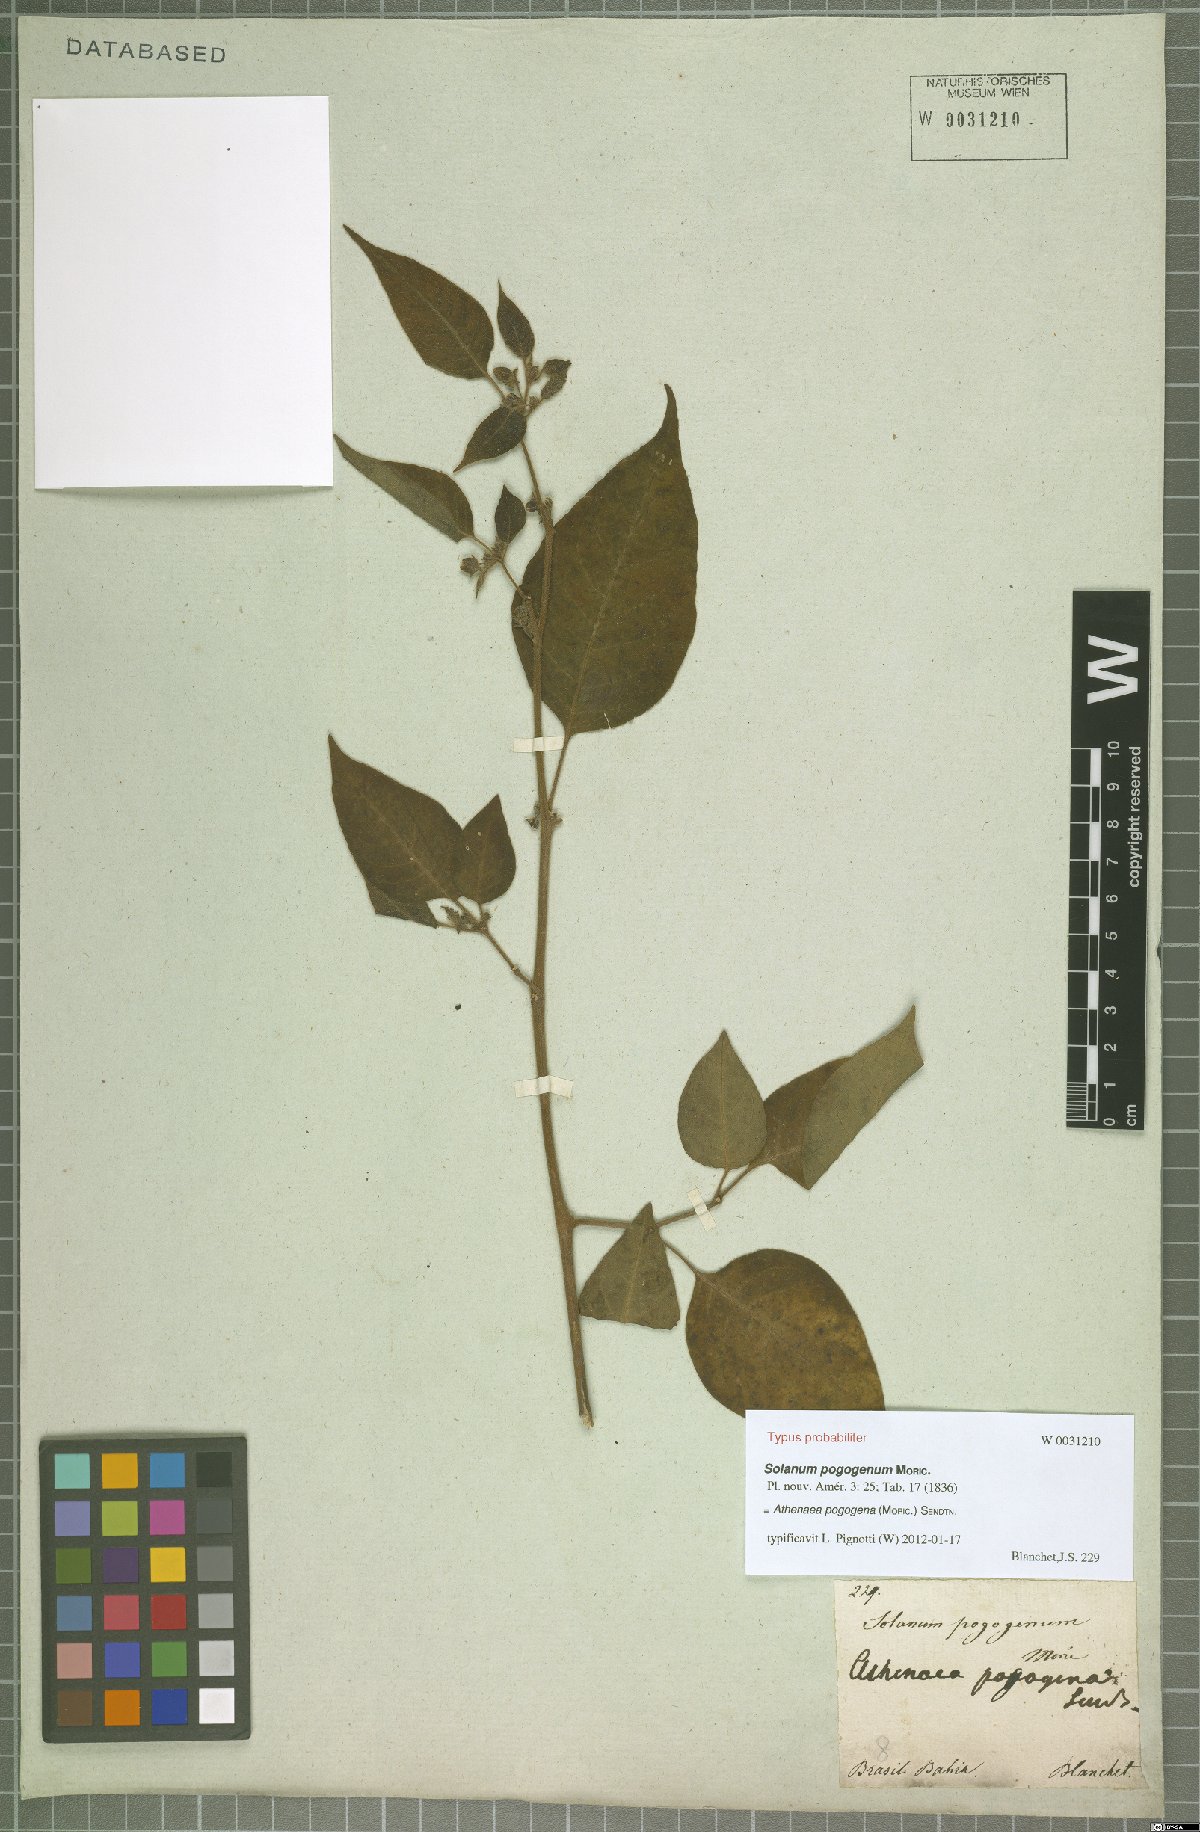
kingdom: Plantae
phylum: Tracheophyta
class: Magnoliopsida
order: Solanales
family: Solanaceae
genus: Athenaea
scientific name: Athenaea pogogena
